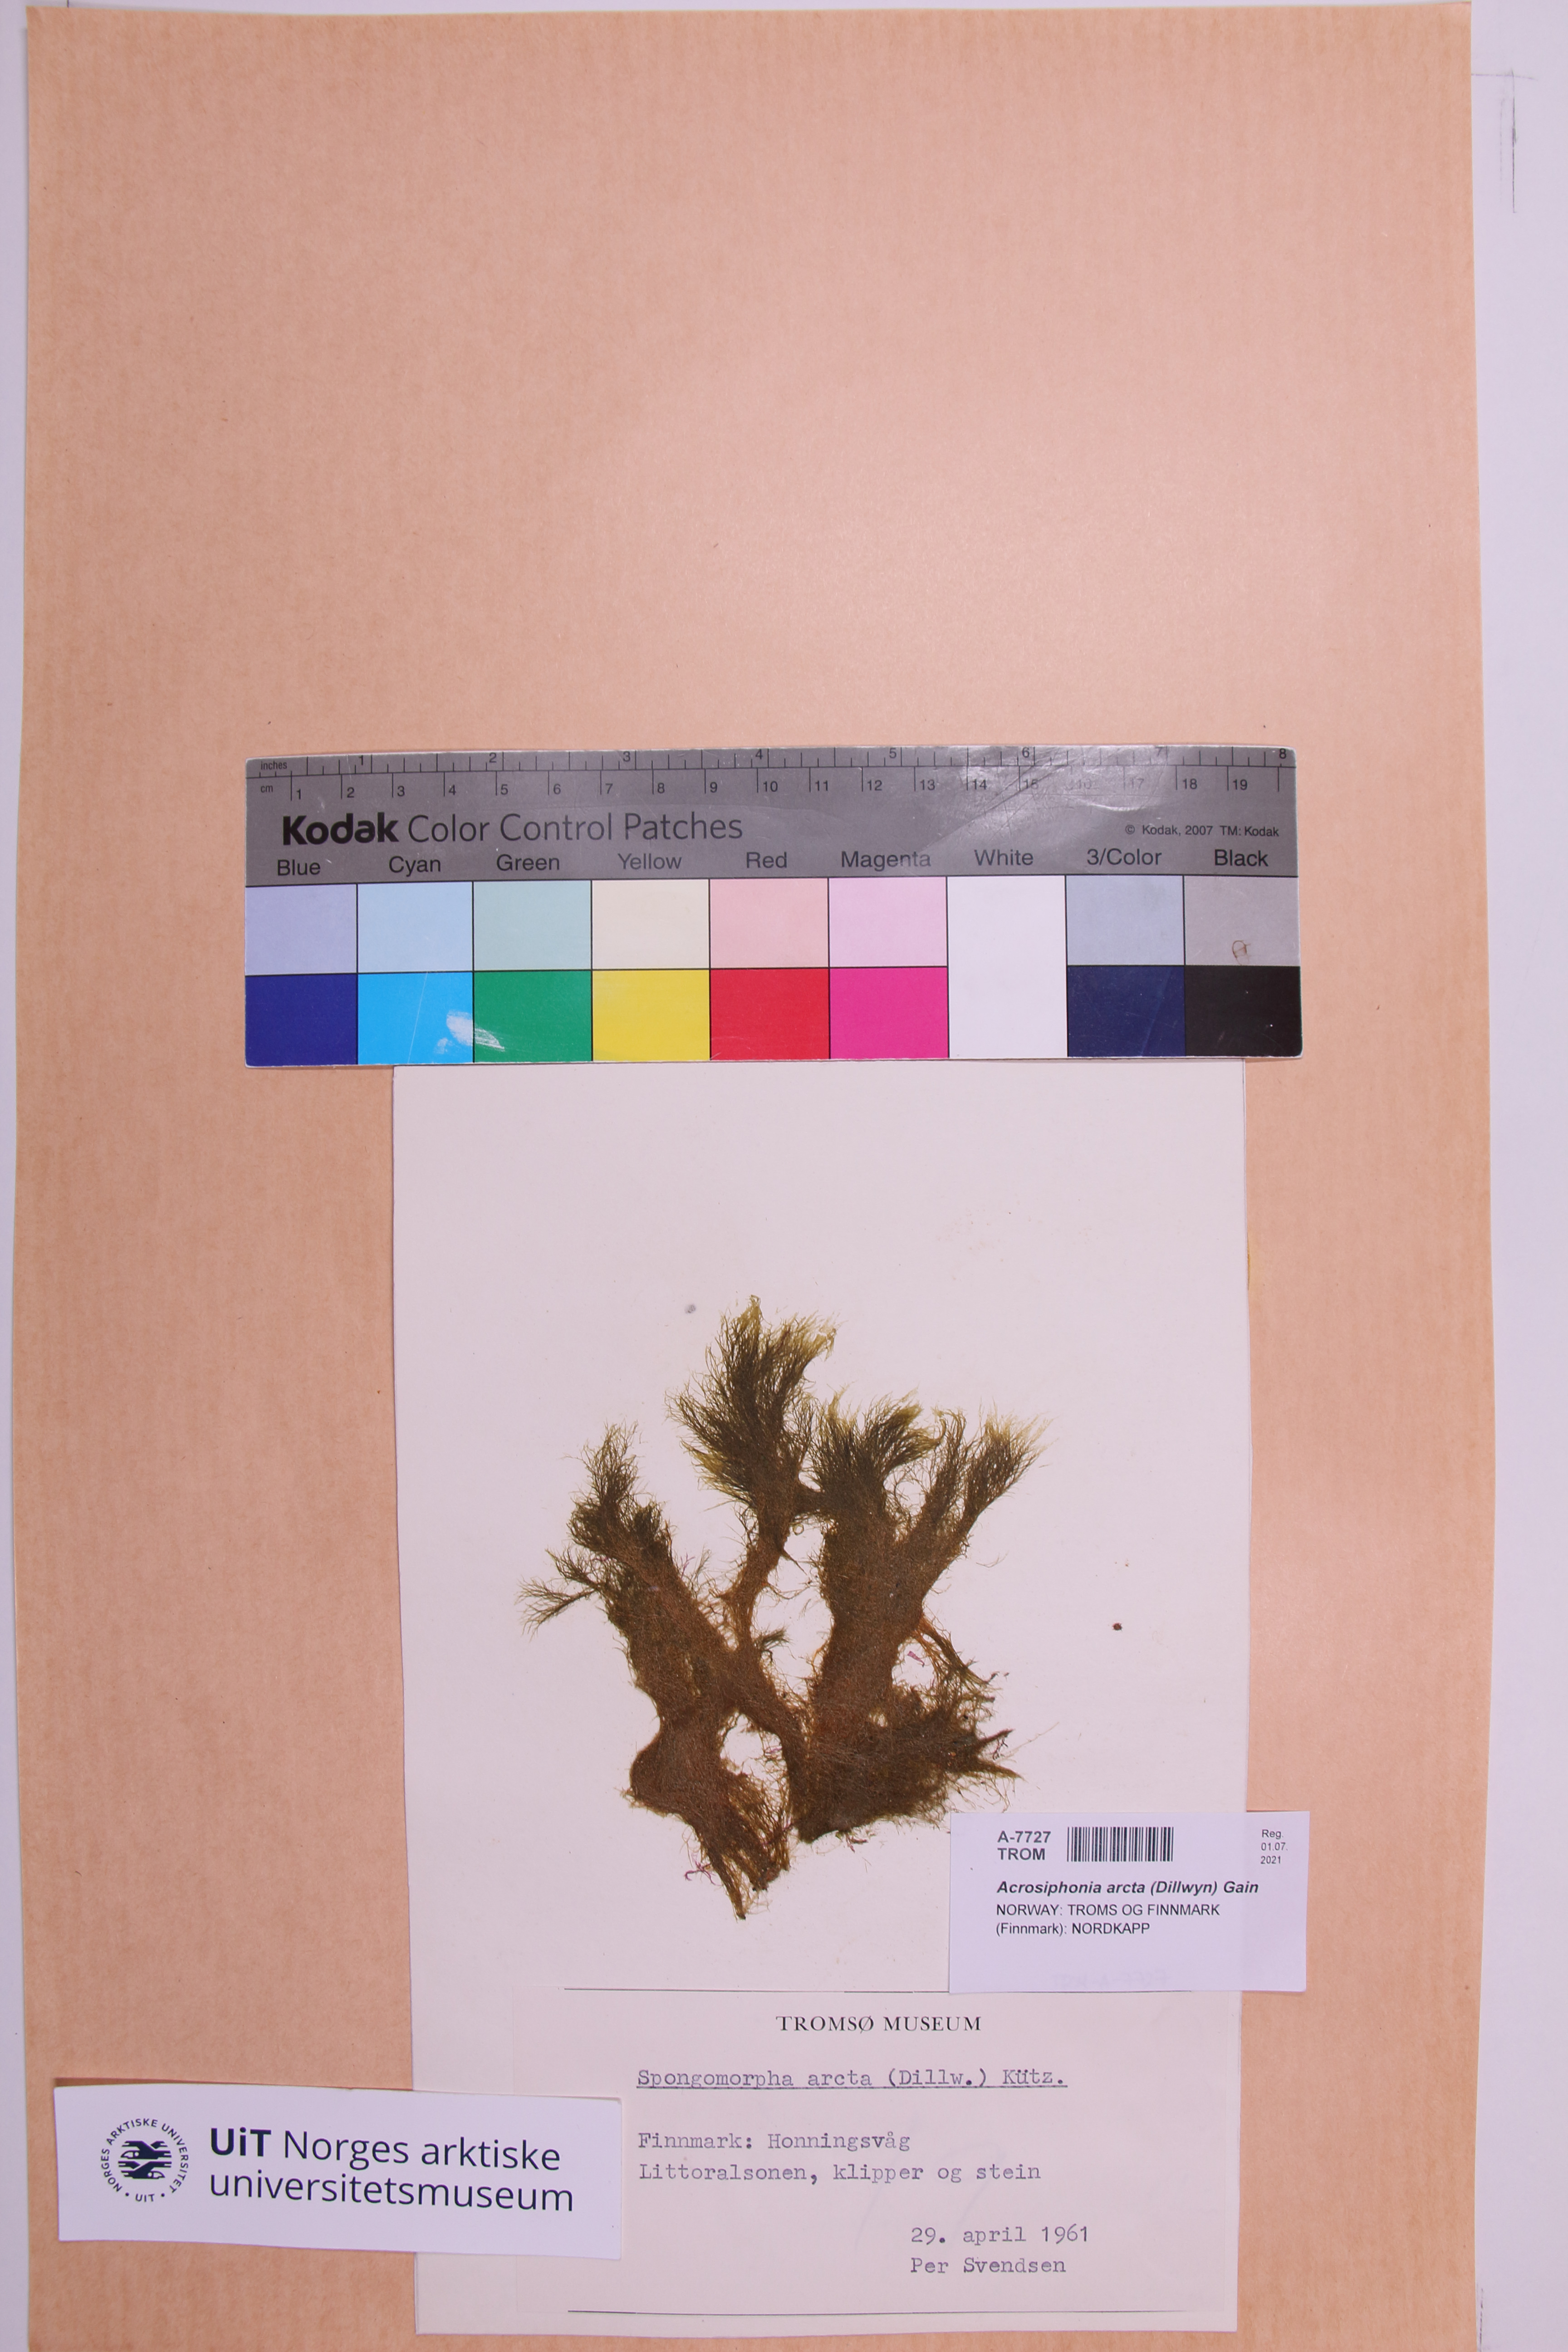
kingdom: Plantae
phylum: Chlorophyta
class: Ulvophyceae
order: Ulotrichales
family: Ulotrichaceae
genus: Acrosiphonia
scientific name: Acrosiphonia arcta
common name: Green tarantula weed
